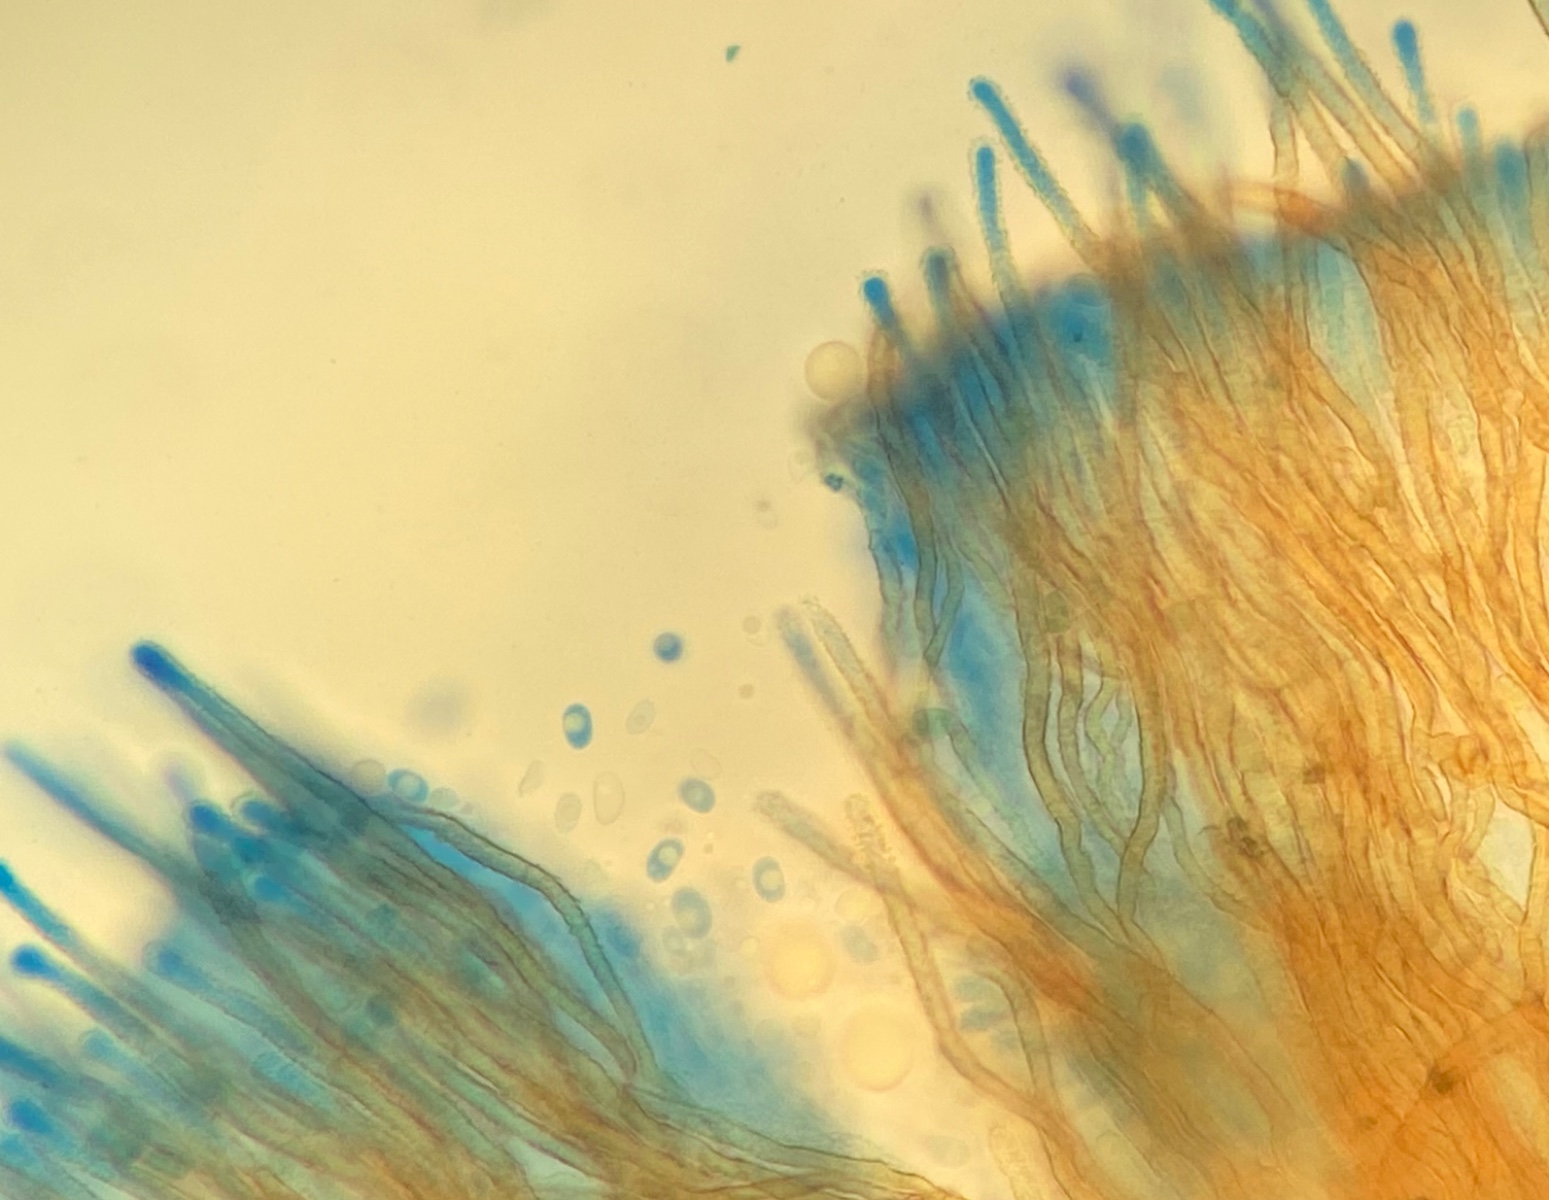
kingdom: Fungi
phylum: Basidiomycota
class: Agaricomycetes
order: Agaricales
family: Niaceae
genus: Maireina
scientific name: Maireina ochracea
